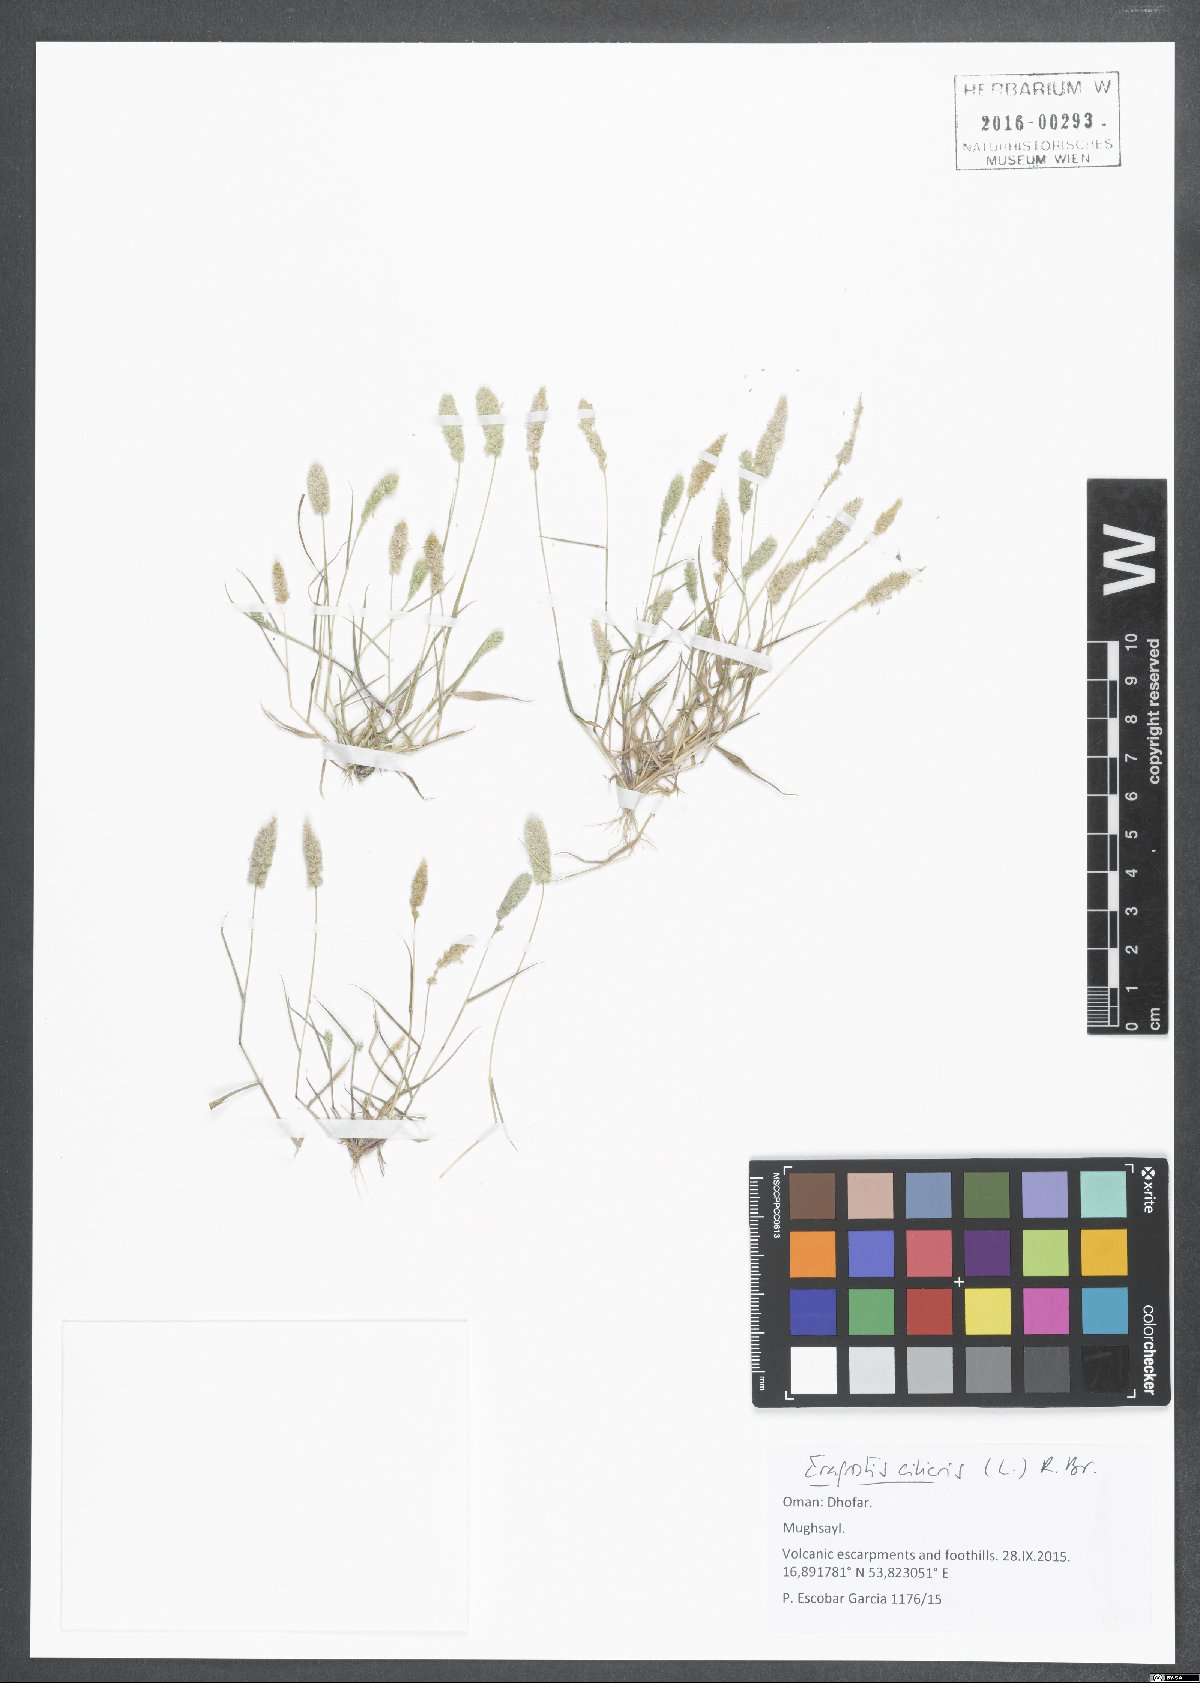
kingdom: Plantae
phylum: Tracheophyta
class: Liliopsida
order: Poales
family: Poaceae
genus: Eragrostis
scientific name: Eragrostis ciliaris
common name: Gophertail lovegrass
